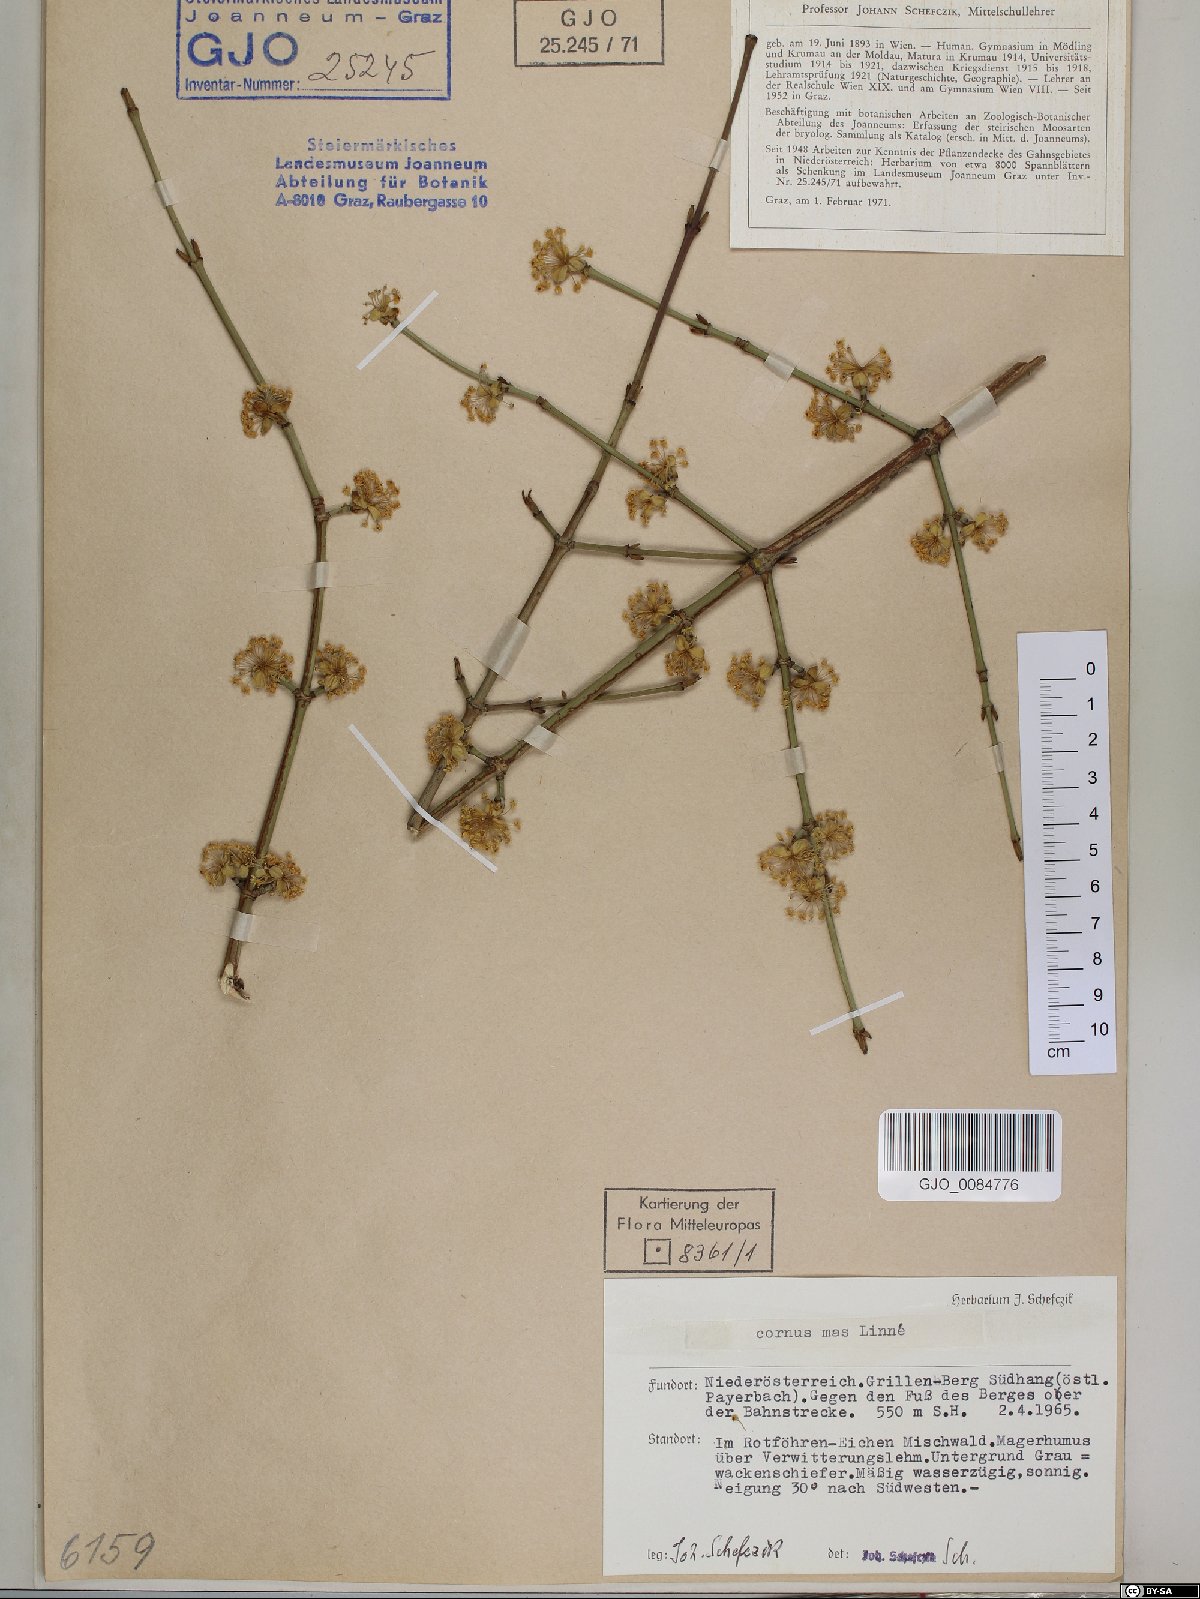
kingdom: Plantae
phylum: Tracheophyta
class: Magnoliopsida
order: Cornales
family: Cornaceae
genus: Cornus
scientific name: Cornus mas
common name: Cornelian-cherry
